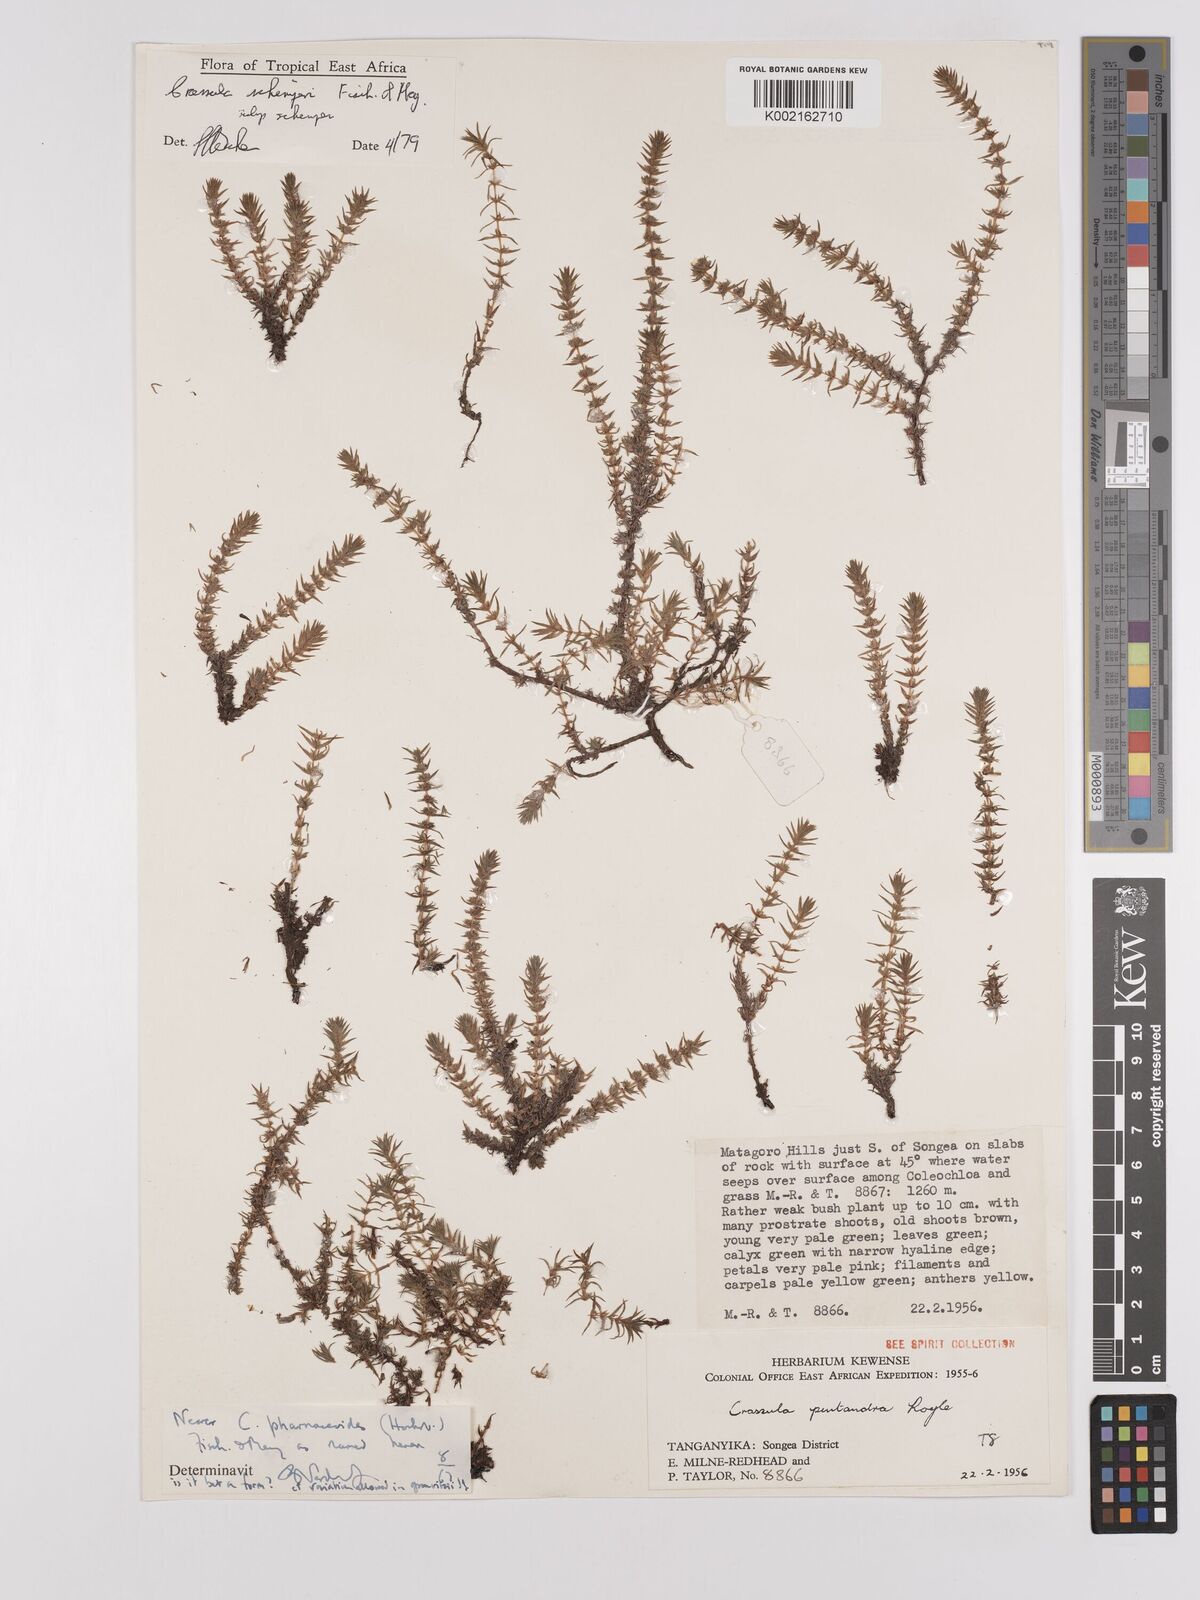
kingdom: Plantae
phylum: Tracheophyta
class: Magnoliopsida
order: Saxifragales
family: Crassulaceae
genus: Crassula
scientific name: Crassula schimperi
